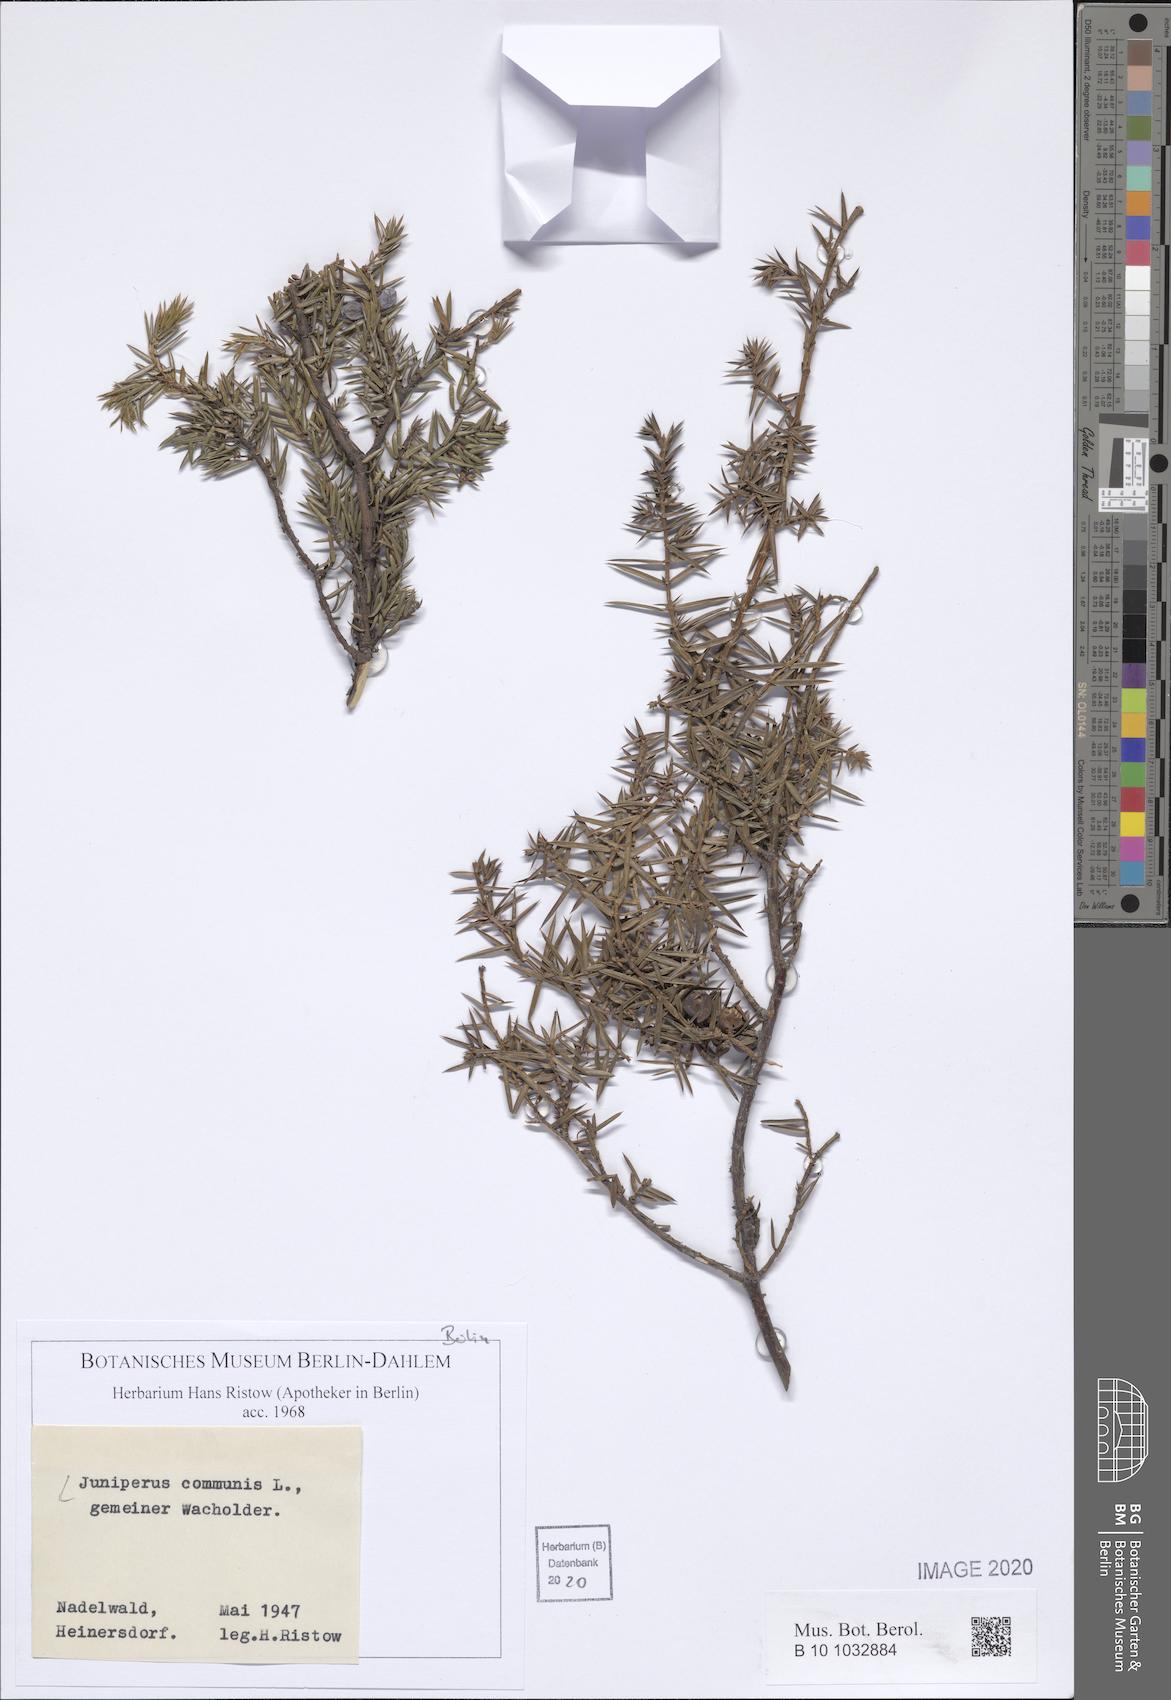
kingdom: Plantae
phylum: Tracheophyta
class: Pinopsida
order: Pinales
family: Cupressaceae
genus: Juniperus
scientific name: Juniperus communis
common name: Common juniper
